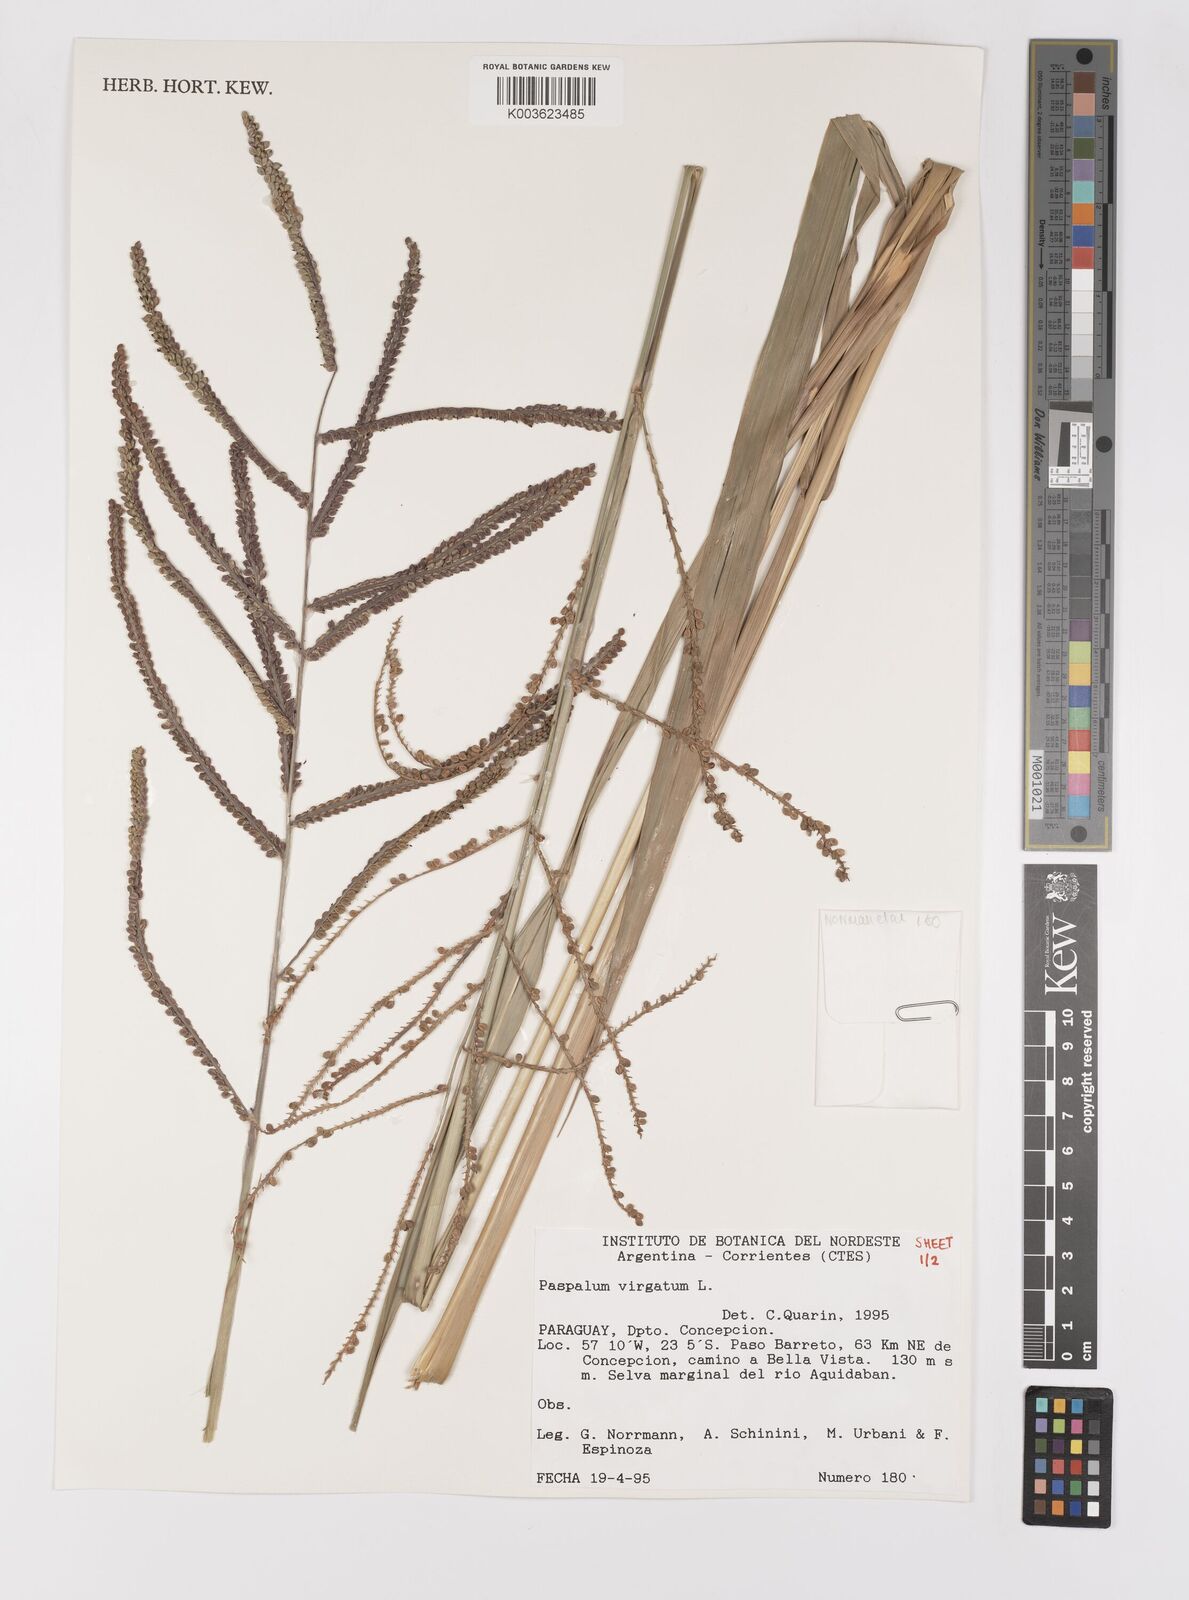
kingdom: Plantae
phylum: Tracheophyta
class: Liliopsida
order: Poales
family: Poaceae
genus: Paspalum
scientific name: Paspalum virgatum
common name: Talquezal
